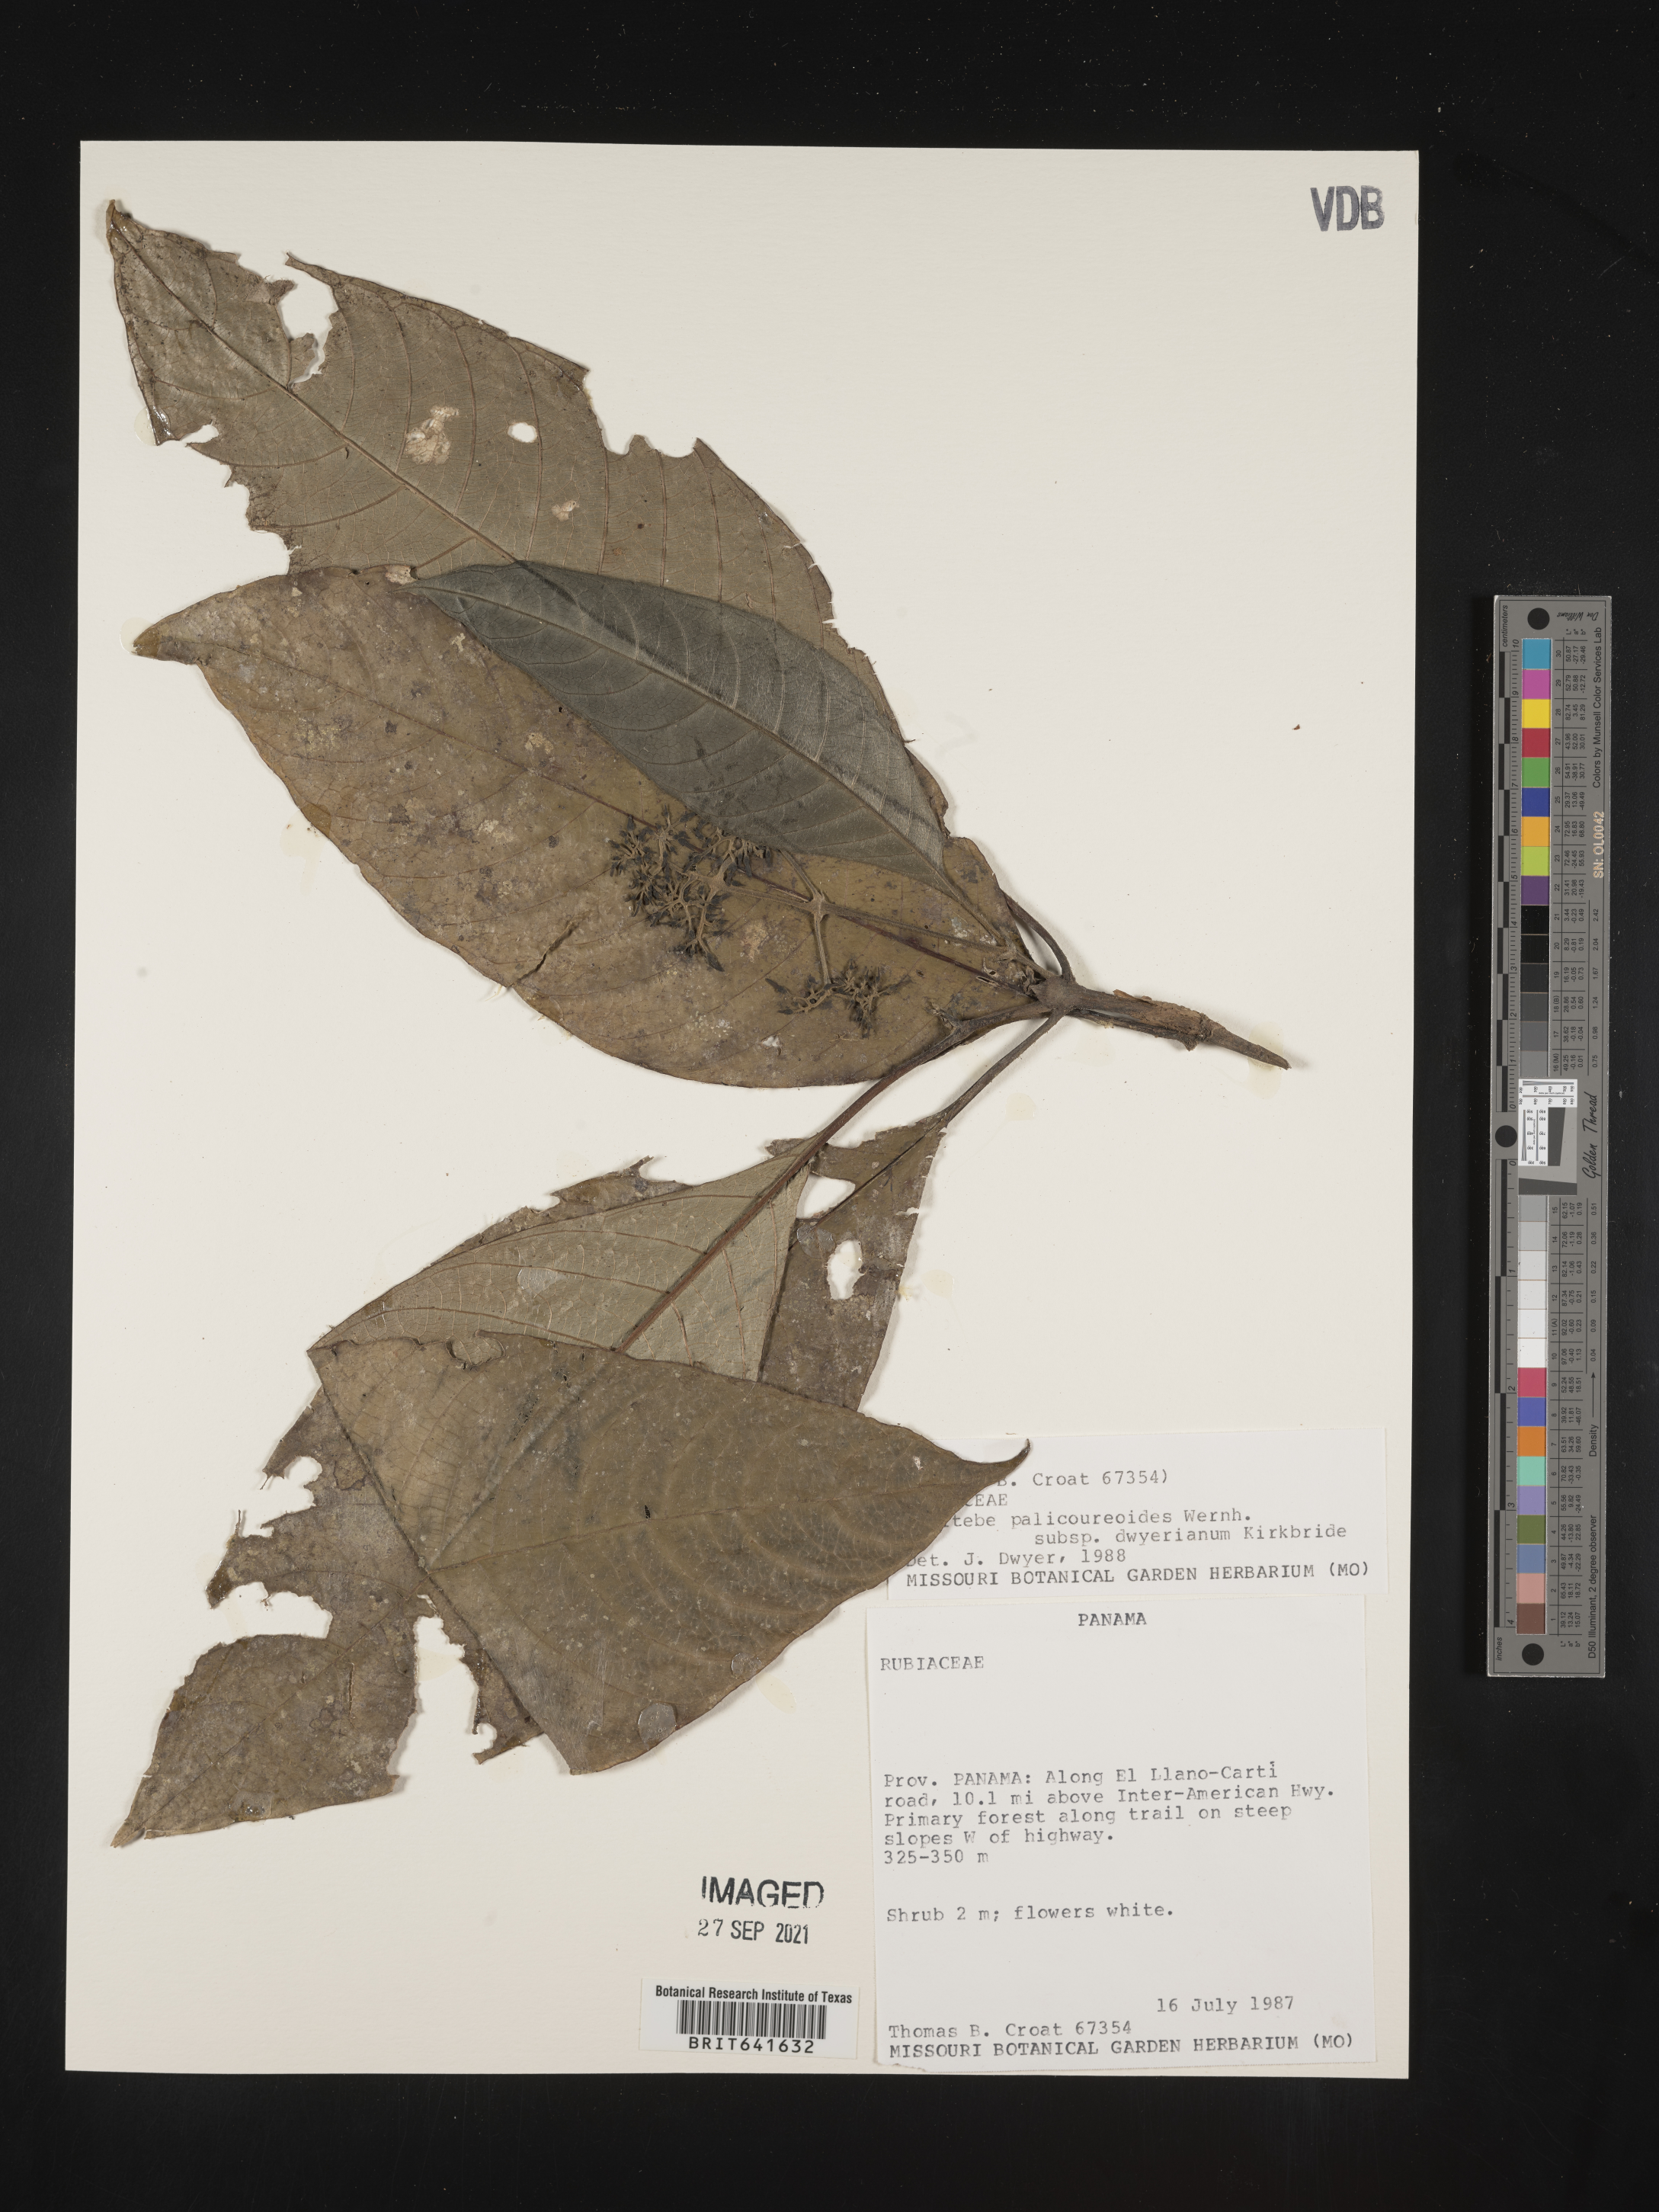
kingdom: Plantae
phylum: Tracheophyta
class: Magnoliopsida
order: Gentianales
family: Rubiaceae
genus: Raritebe
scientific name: Raritebe palicoureoides
